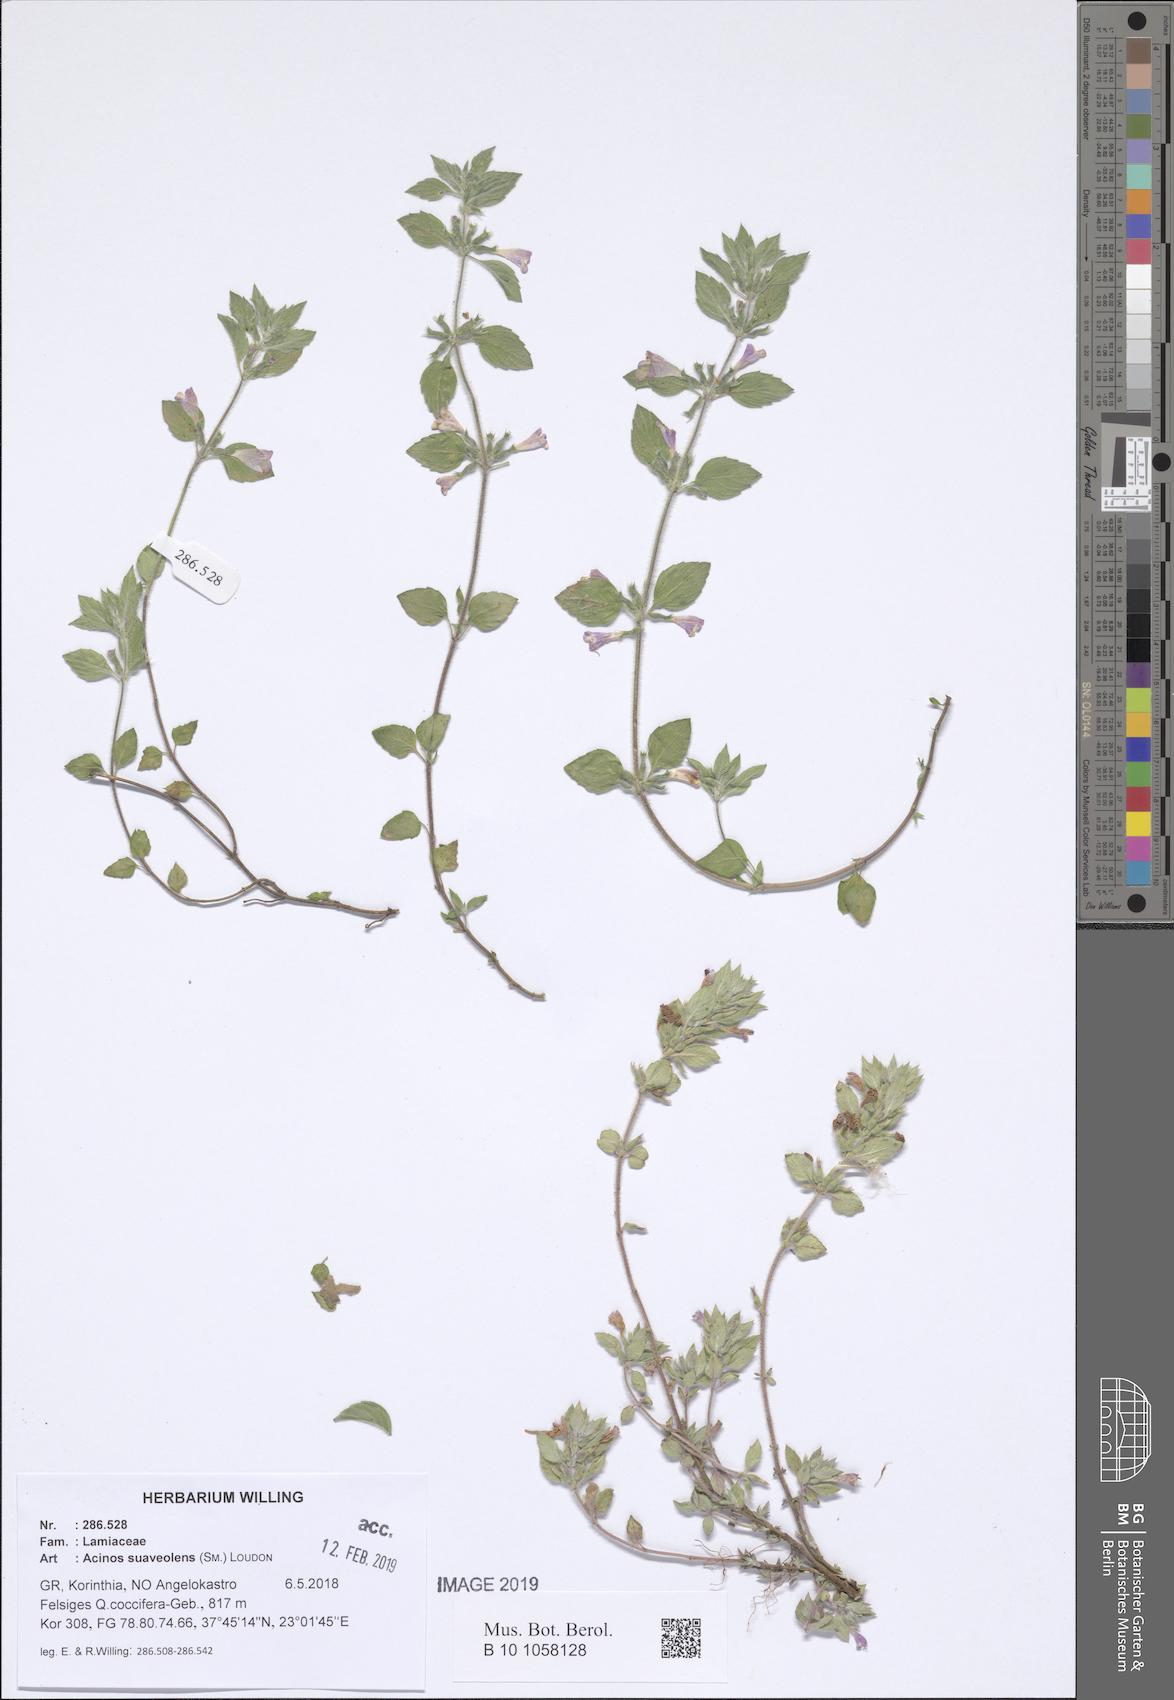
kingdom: Plantae
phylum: Tracheophyta
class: Magnoliopsida
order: Lamiales
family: Lamiaceae
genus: Clinopodium
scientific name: Clinopodium suaveolens
